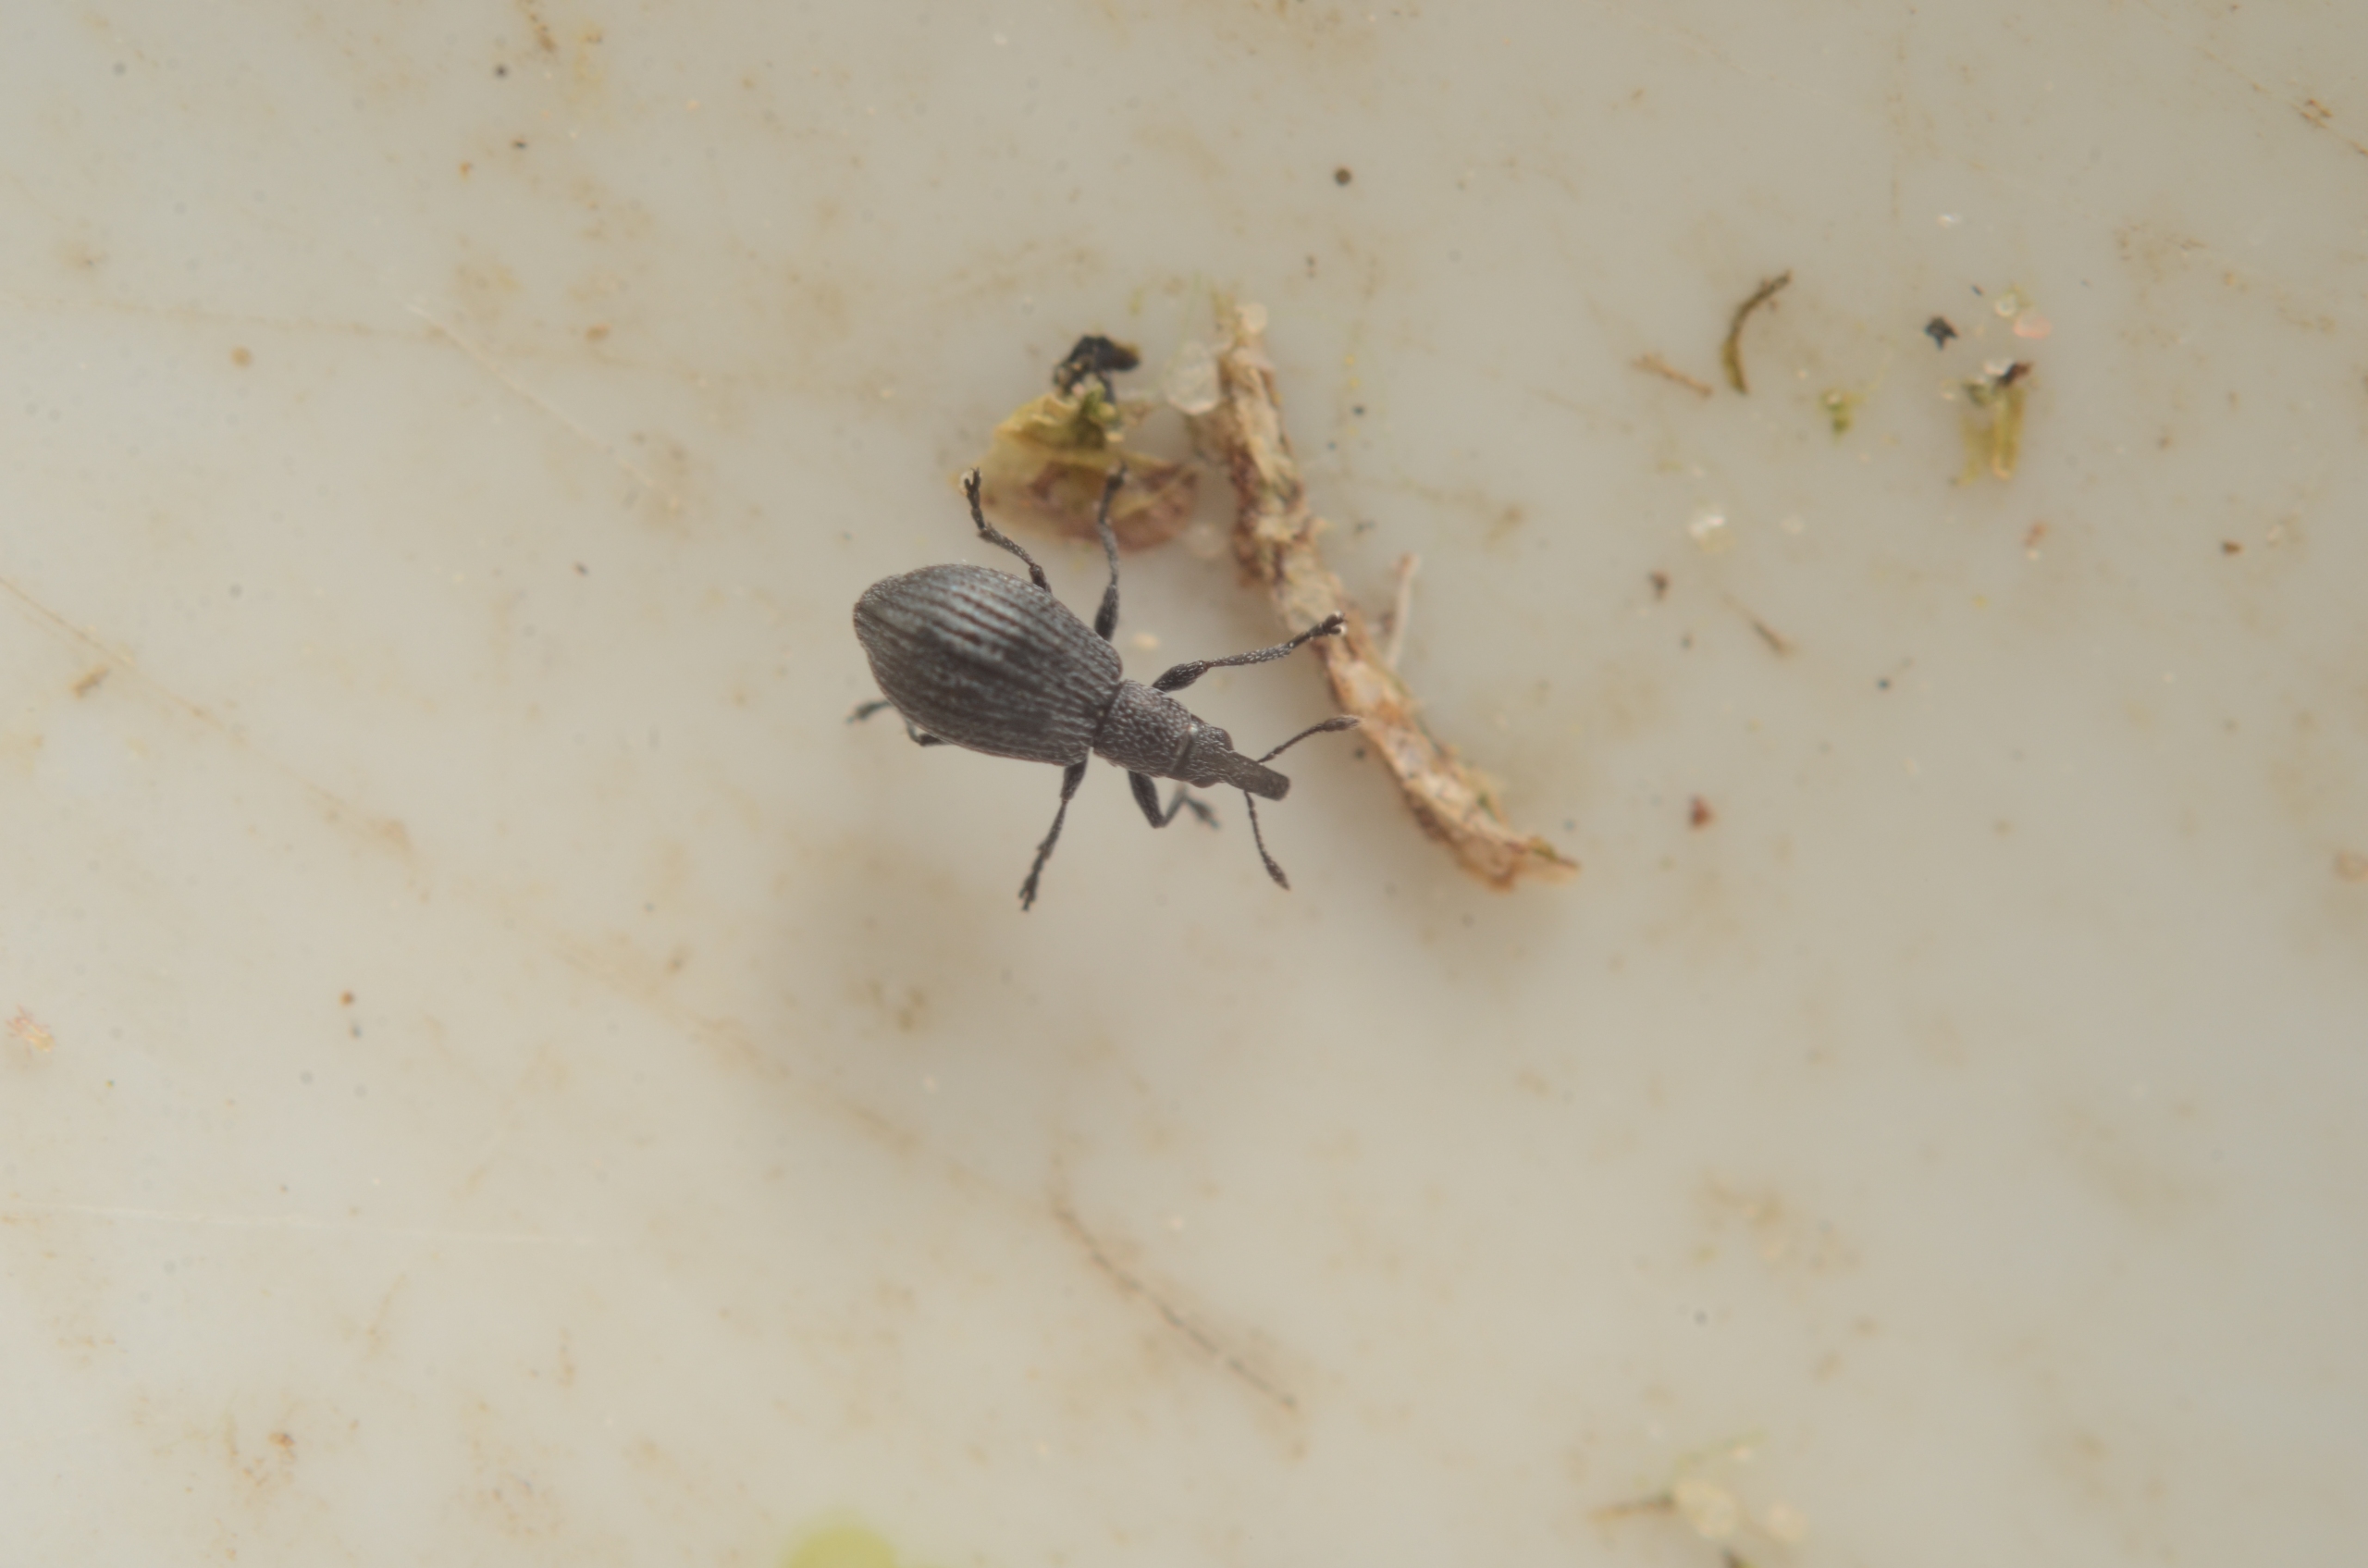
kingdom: Animalia
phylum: Arthropoda
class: Insecta
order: Coleoptera
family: Brentidae
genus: Perapion
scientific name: Perapion curtirostre
